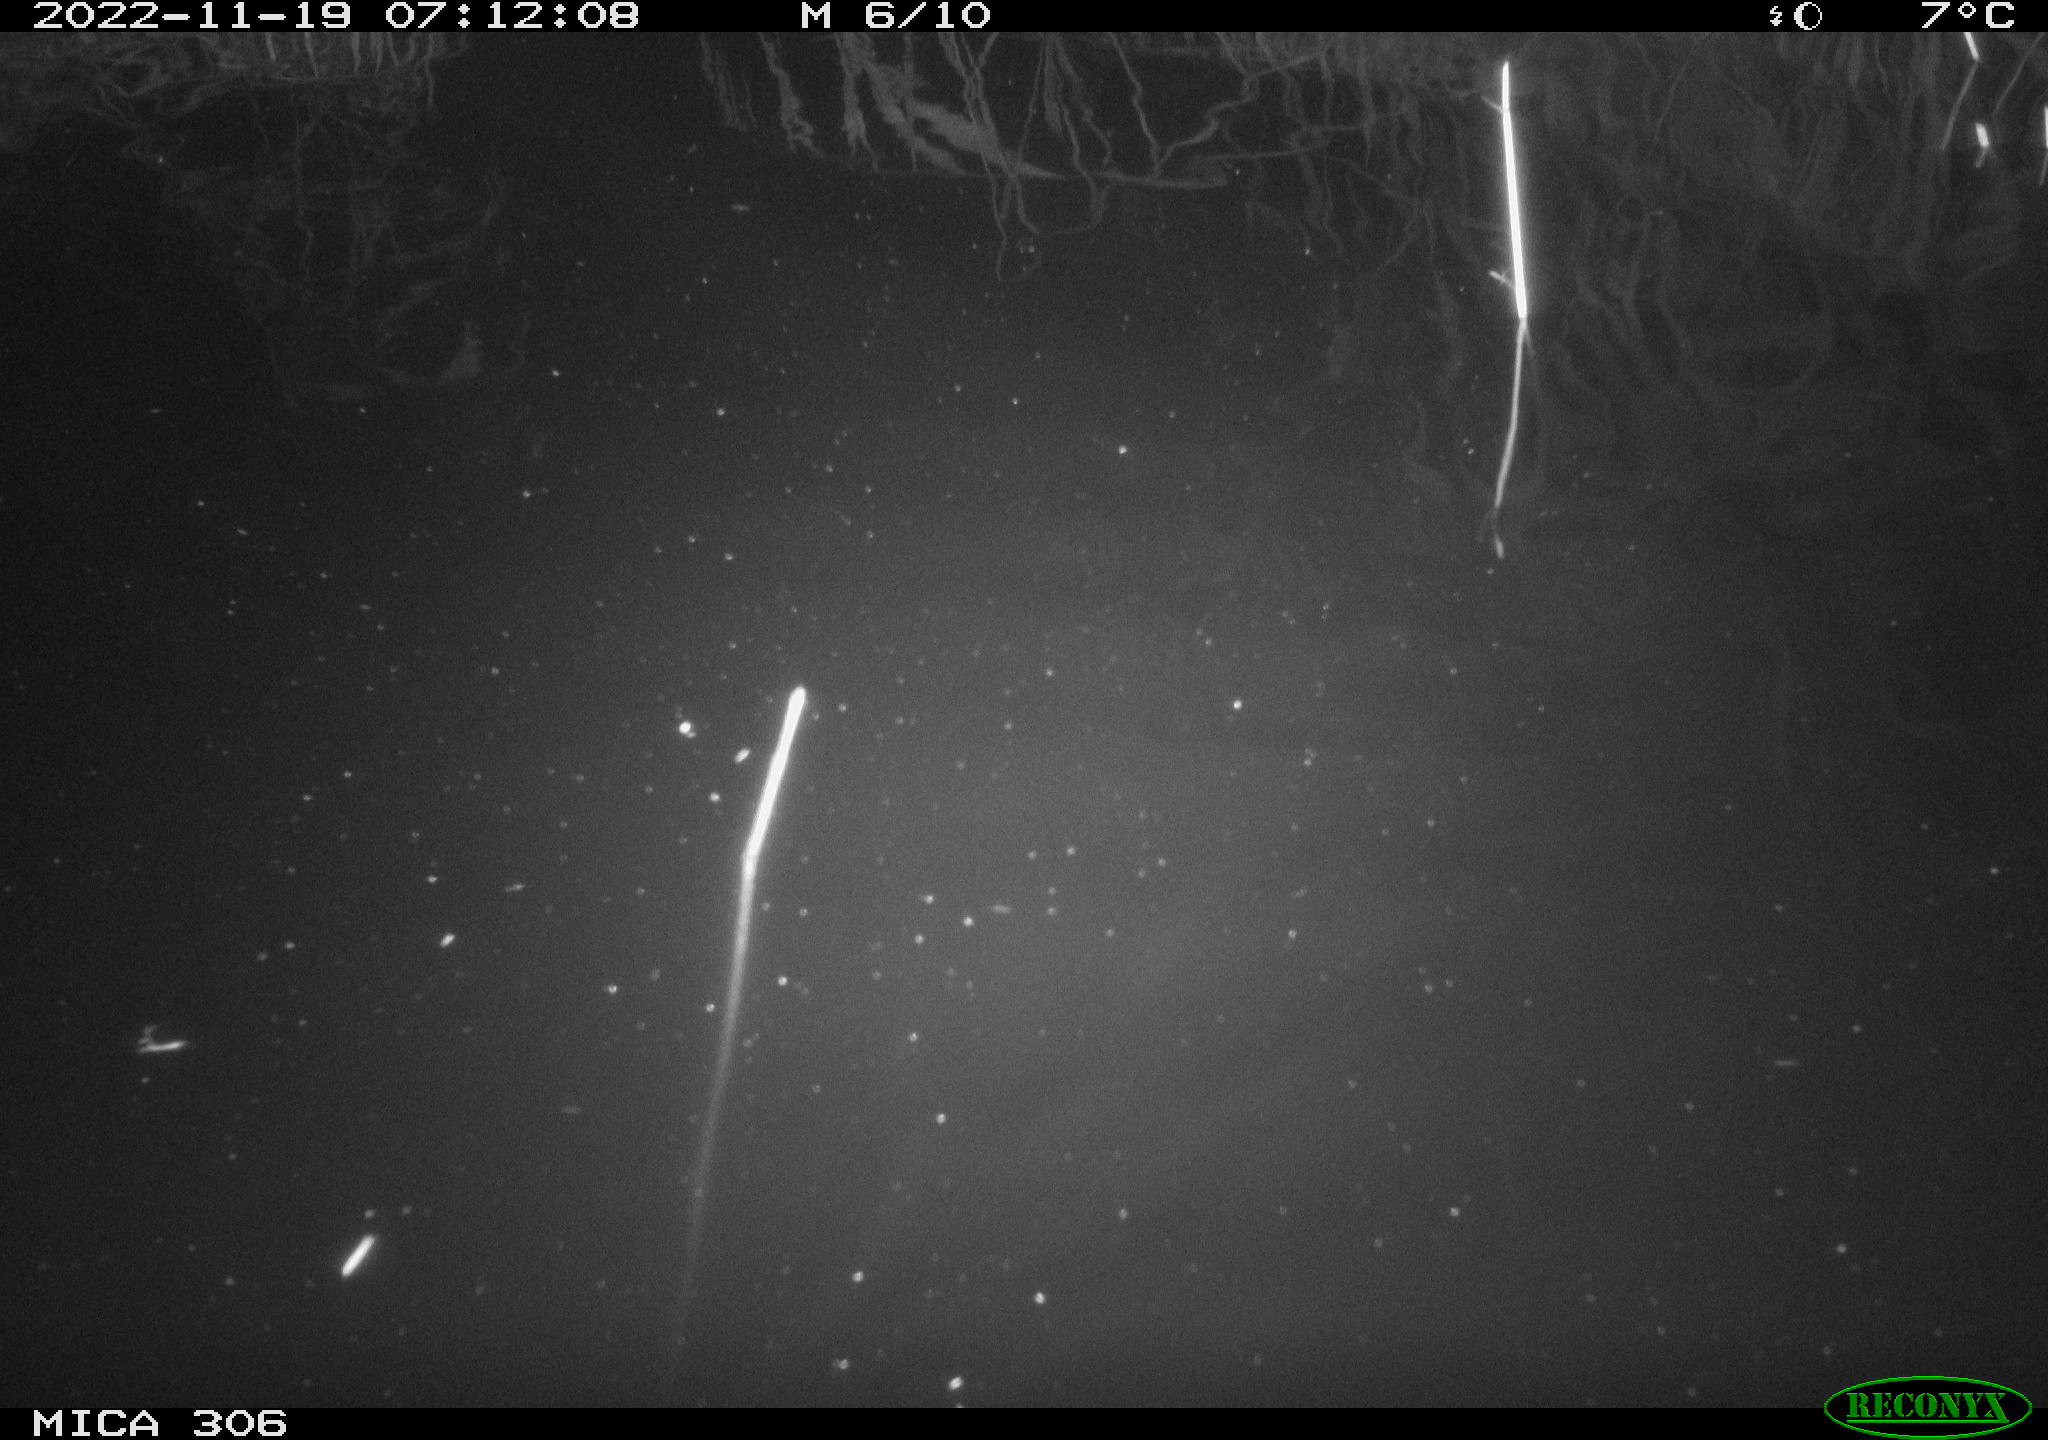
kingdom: Animalia
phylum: Chordata
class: Mammalia
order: Rodentia
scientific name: Rodentia
